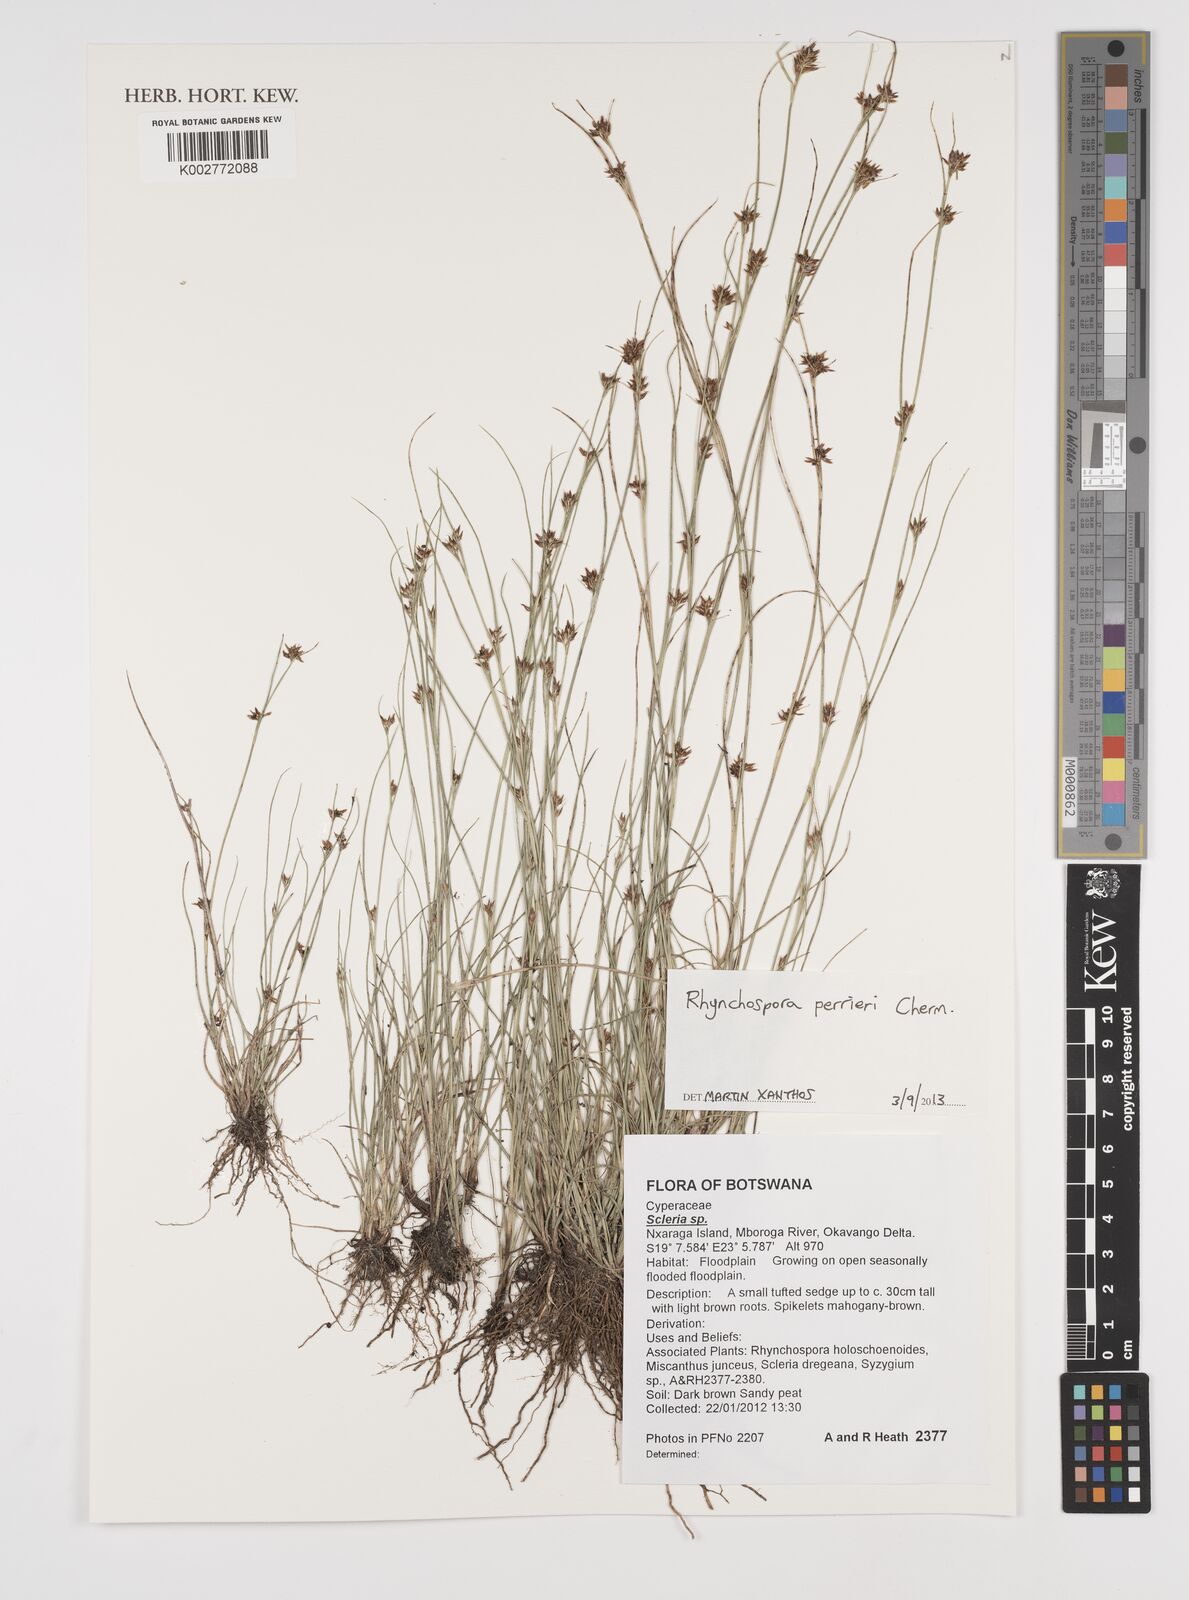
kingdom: Plantae
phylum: Tracheophyta
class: Liliopsida
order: Poales
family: Cyperaceae
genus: Rhynchospora
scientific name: Rhynchospora perrieri
